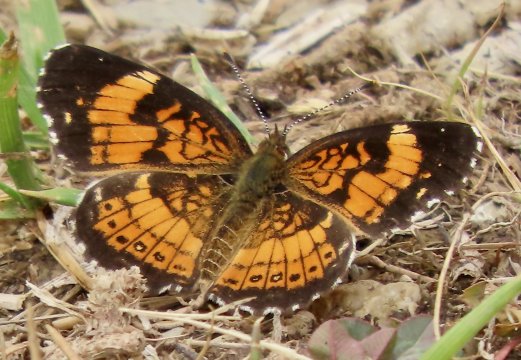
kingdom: Animalia
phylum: Arthropoda
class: Insecta
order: Lepidoptera
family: Nymphalidae
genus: Chlosyne
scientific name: Chlosyne nycteis
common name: Silvery Checkerspot
